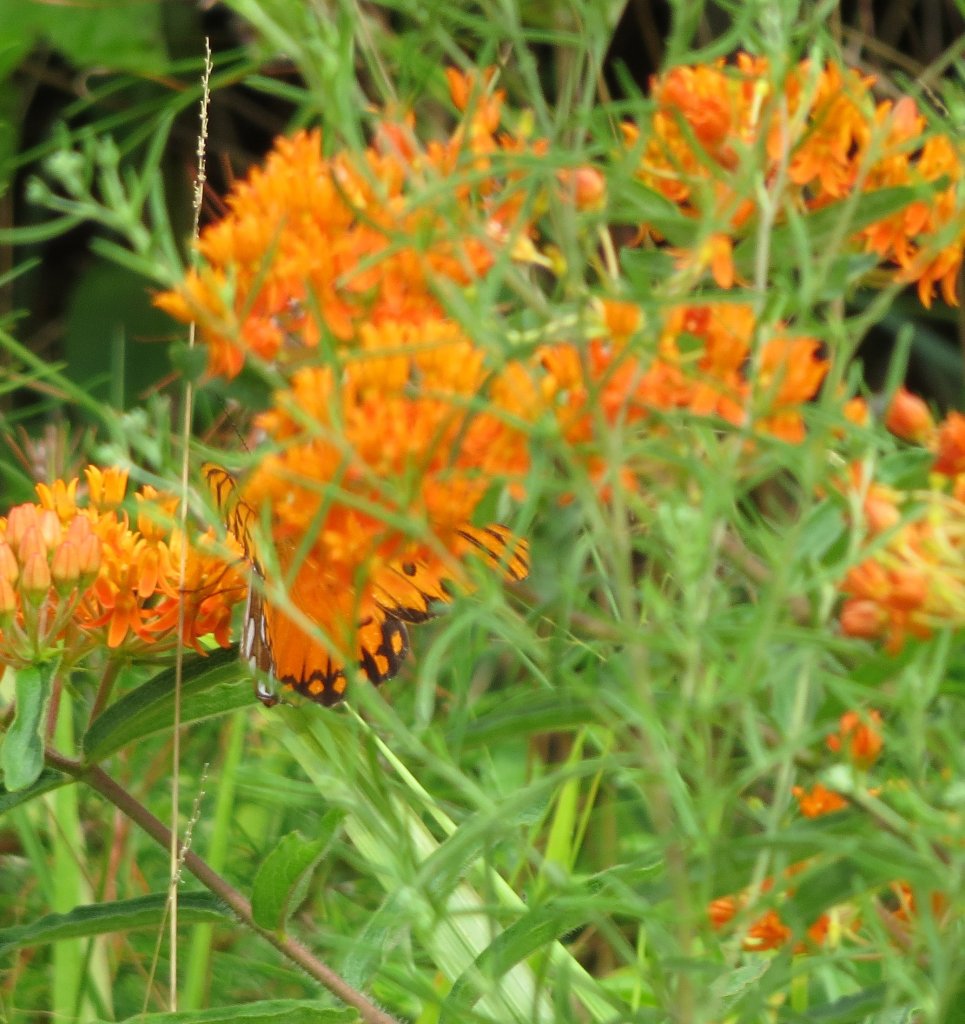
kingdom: Animalia
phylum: Arthropoda
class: Insecta
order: Lepidoptera
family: Nymphalidae
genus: Dione
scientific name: Dione vanillae
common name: Gulf Fritillary
